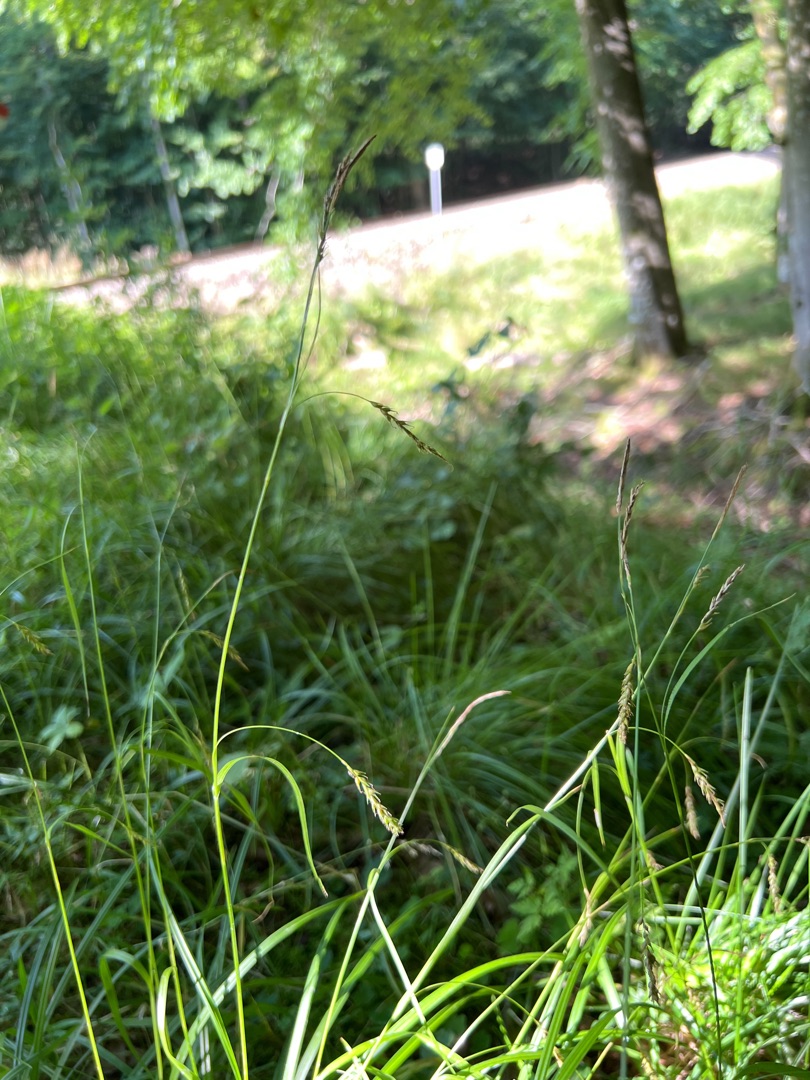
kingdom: Plantae
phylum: Tracheophyta
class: Liliopsida
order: Poales
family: Cyperaceae
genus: Carex
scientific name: Carex sylvatica
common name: Skov-star
